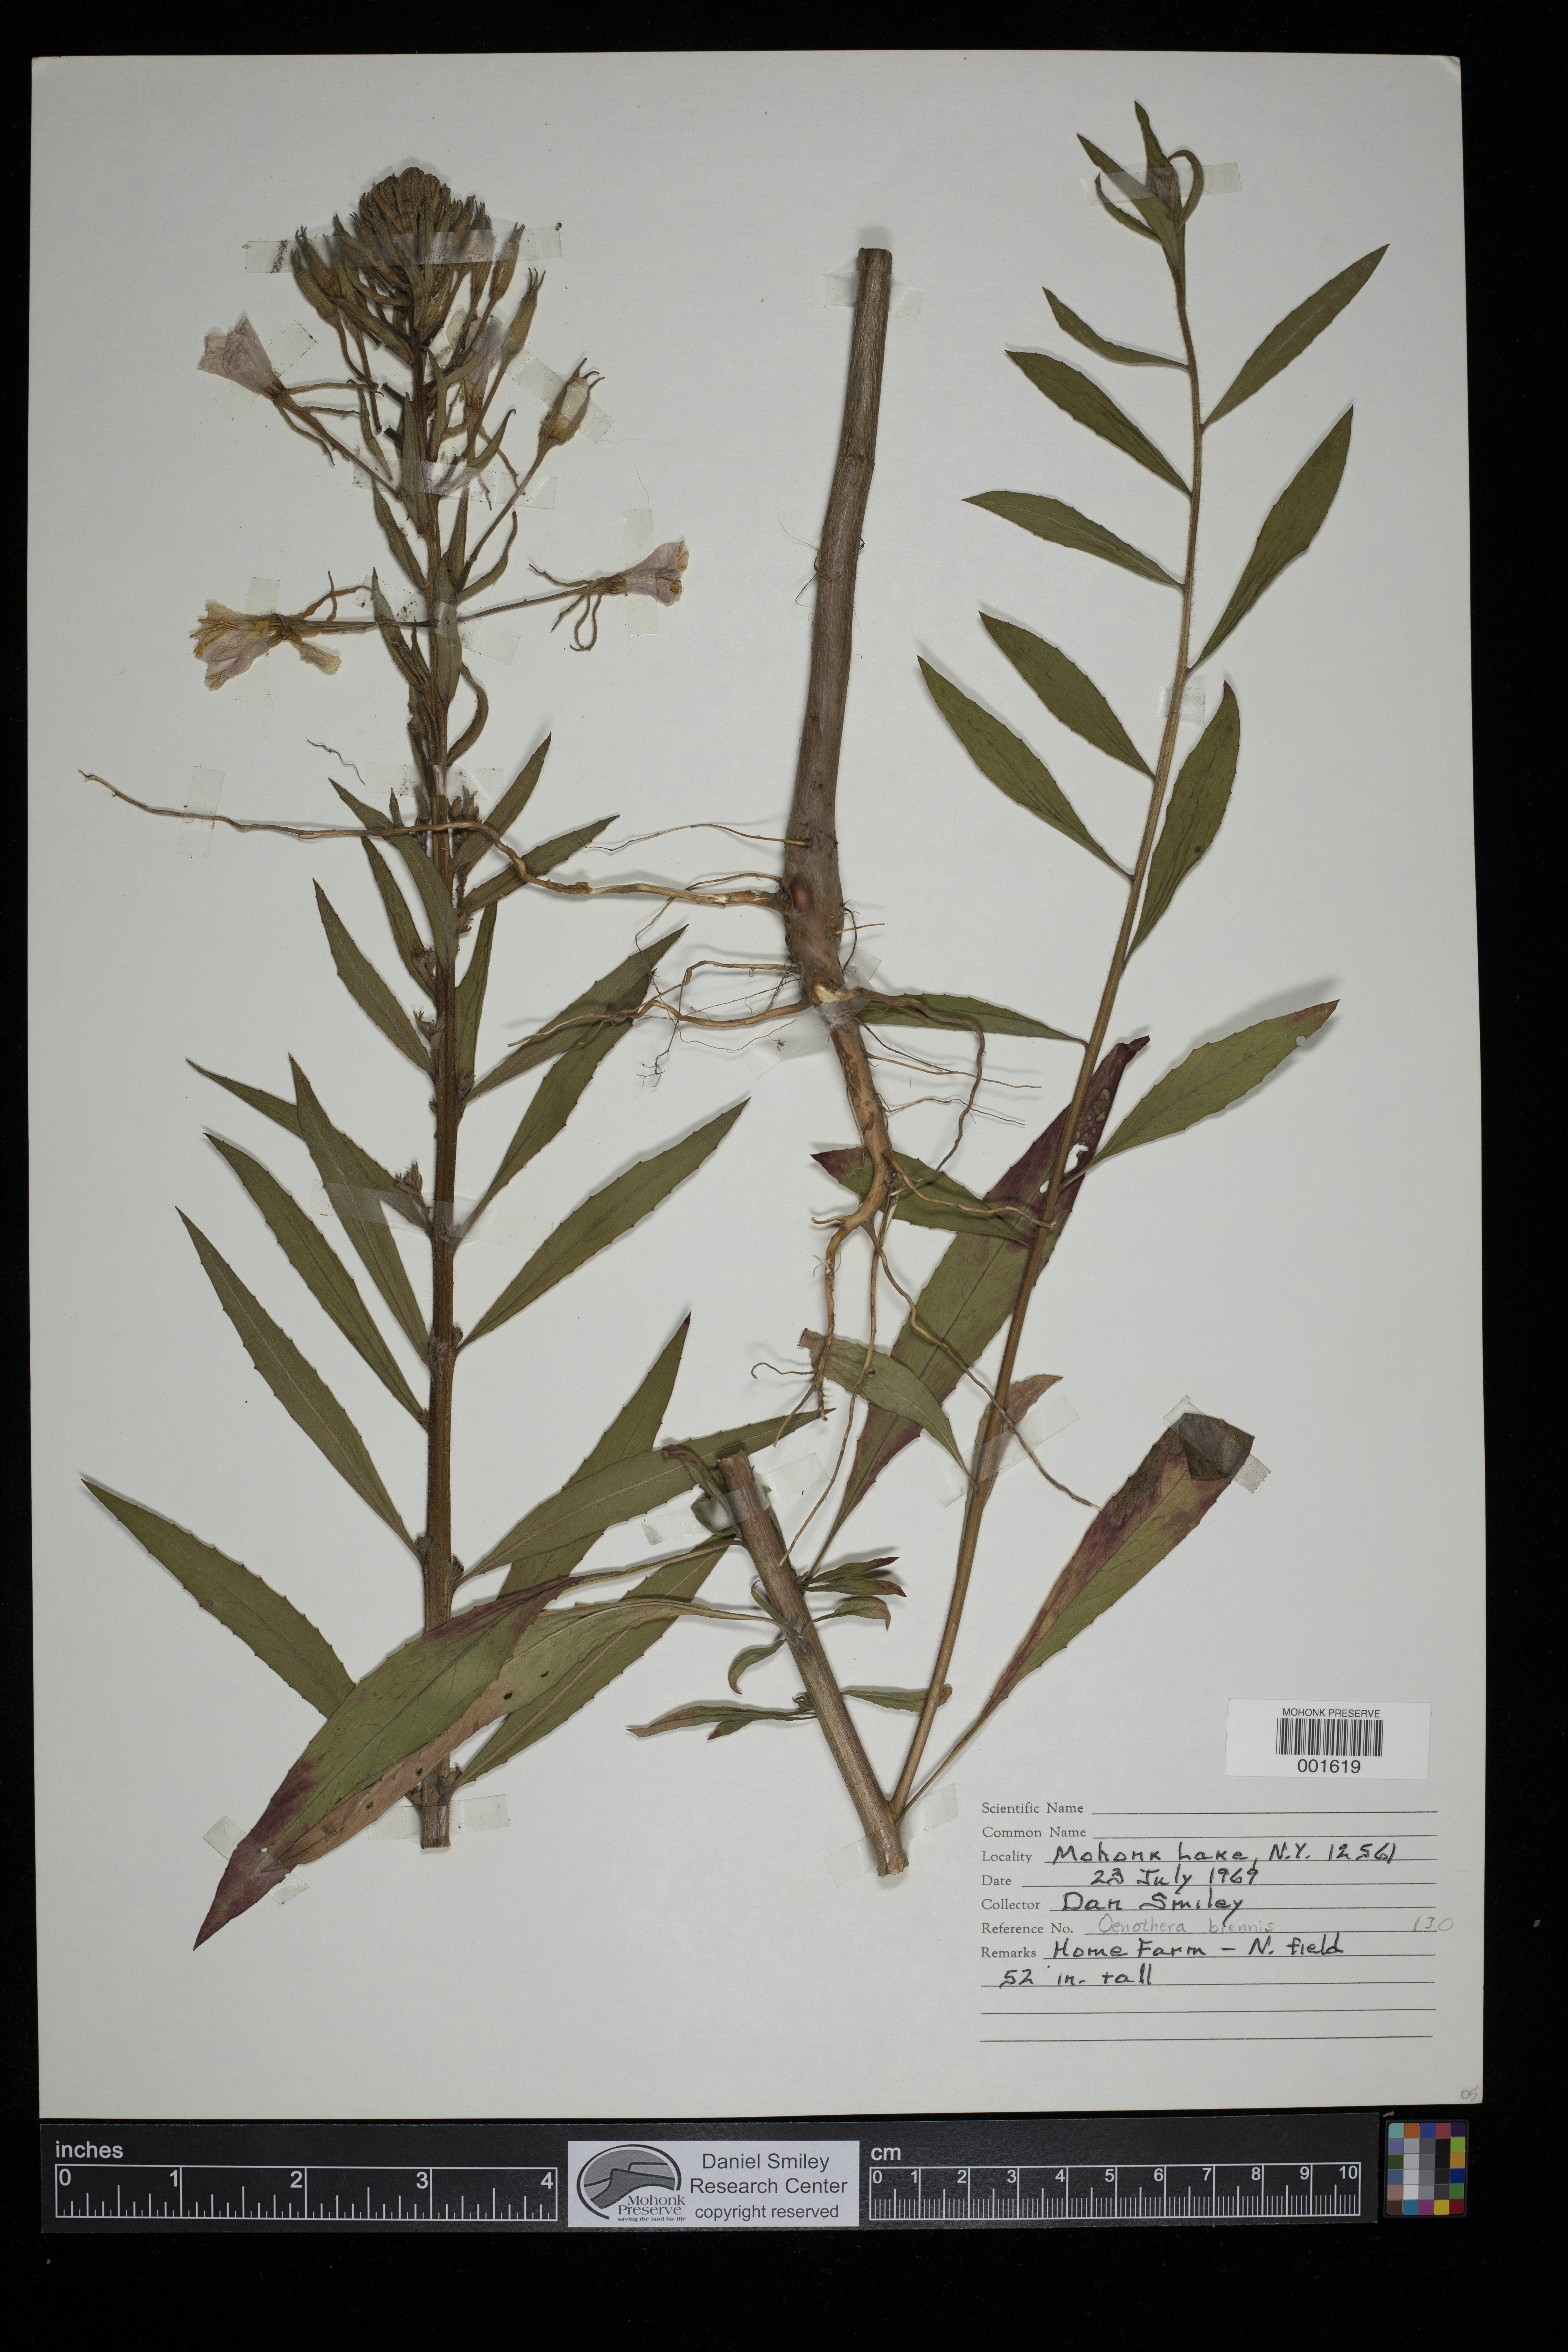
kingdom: Plantae
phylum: Tracheophyta
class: Magnoliopsida
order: Myrtales
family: Onagraceae
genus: Oenothera
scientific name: Oenothera biennis
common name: Common evening-primrose
